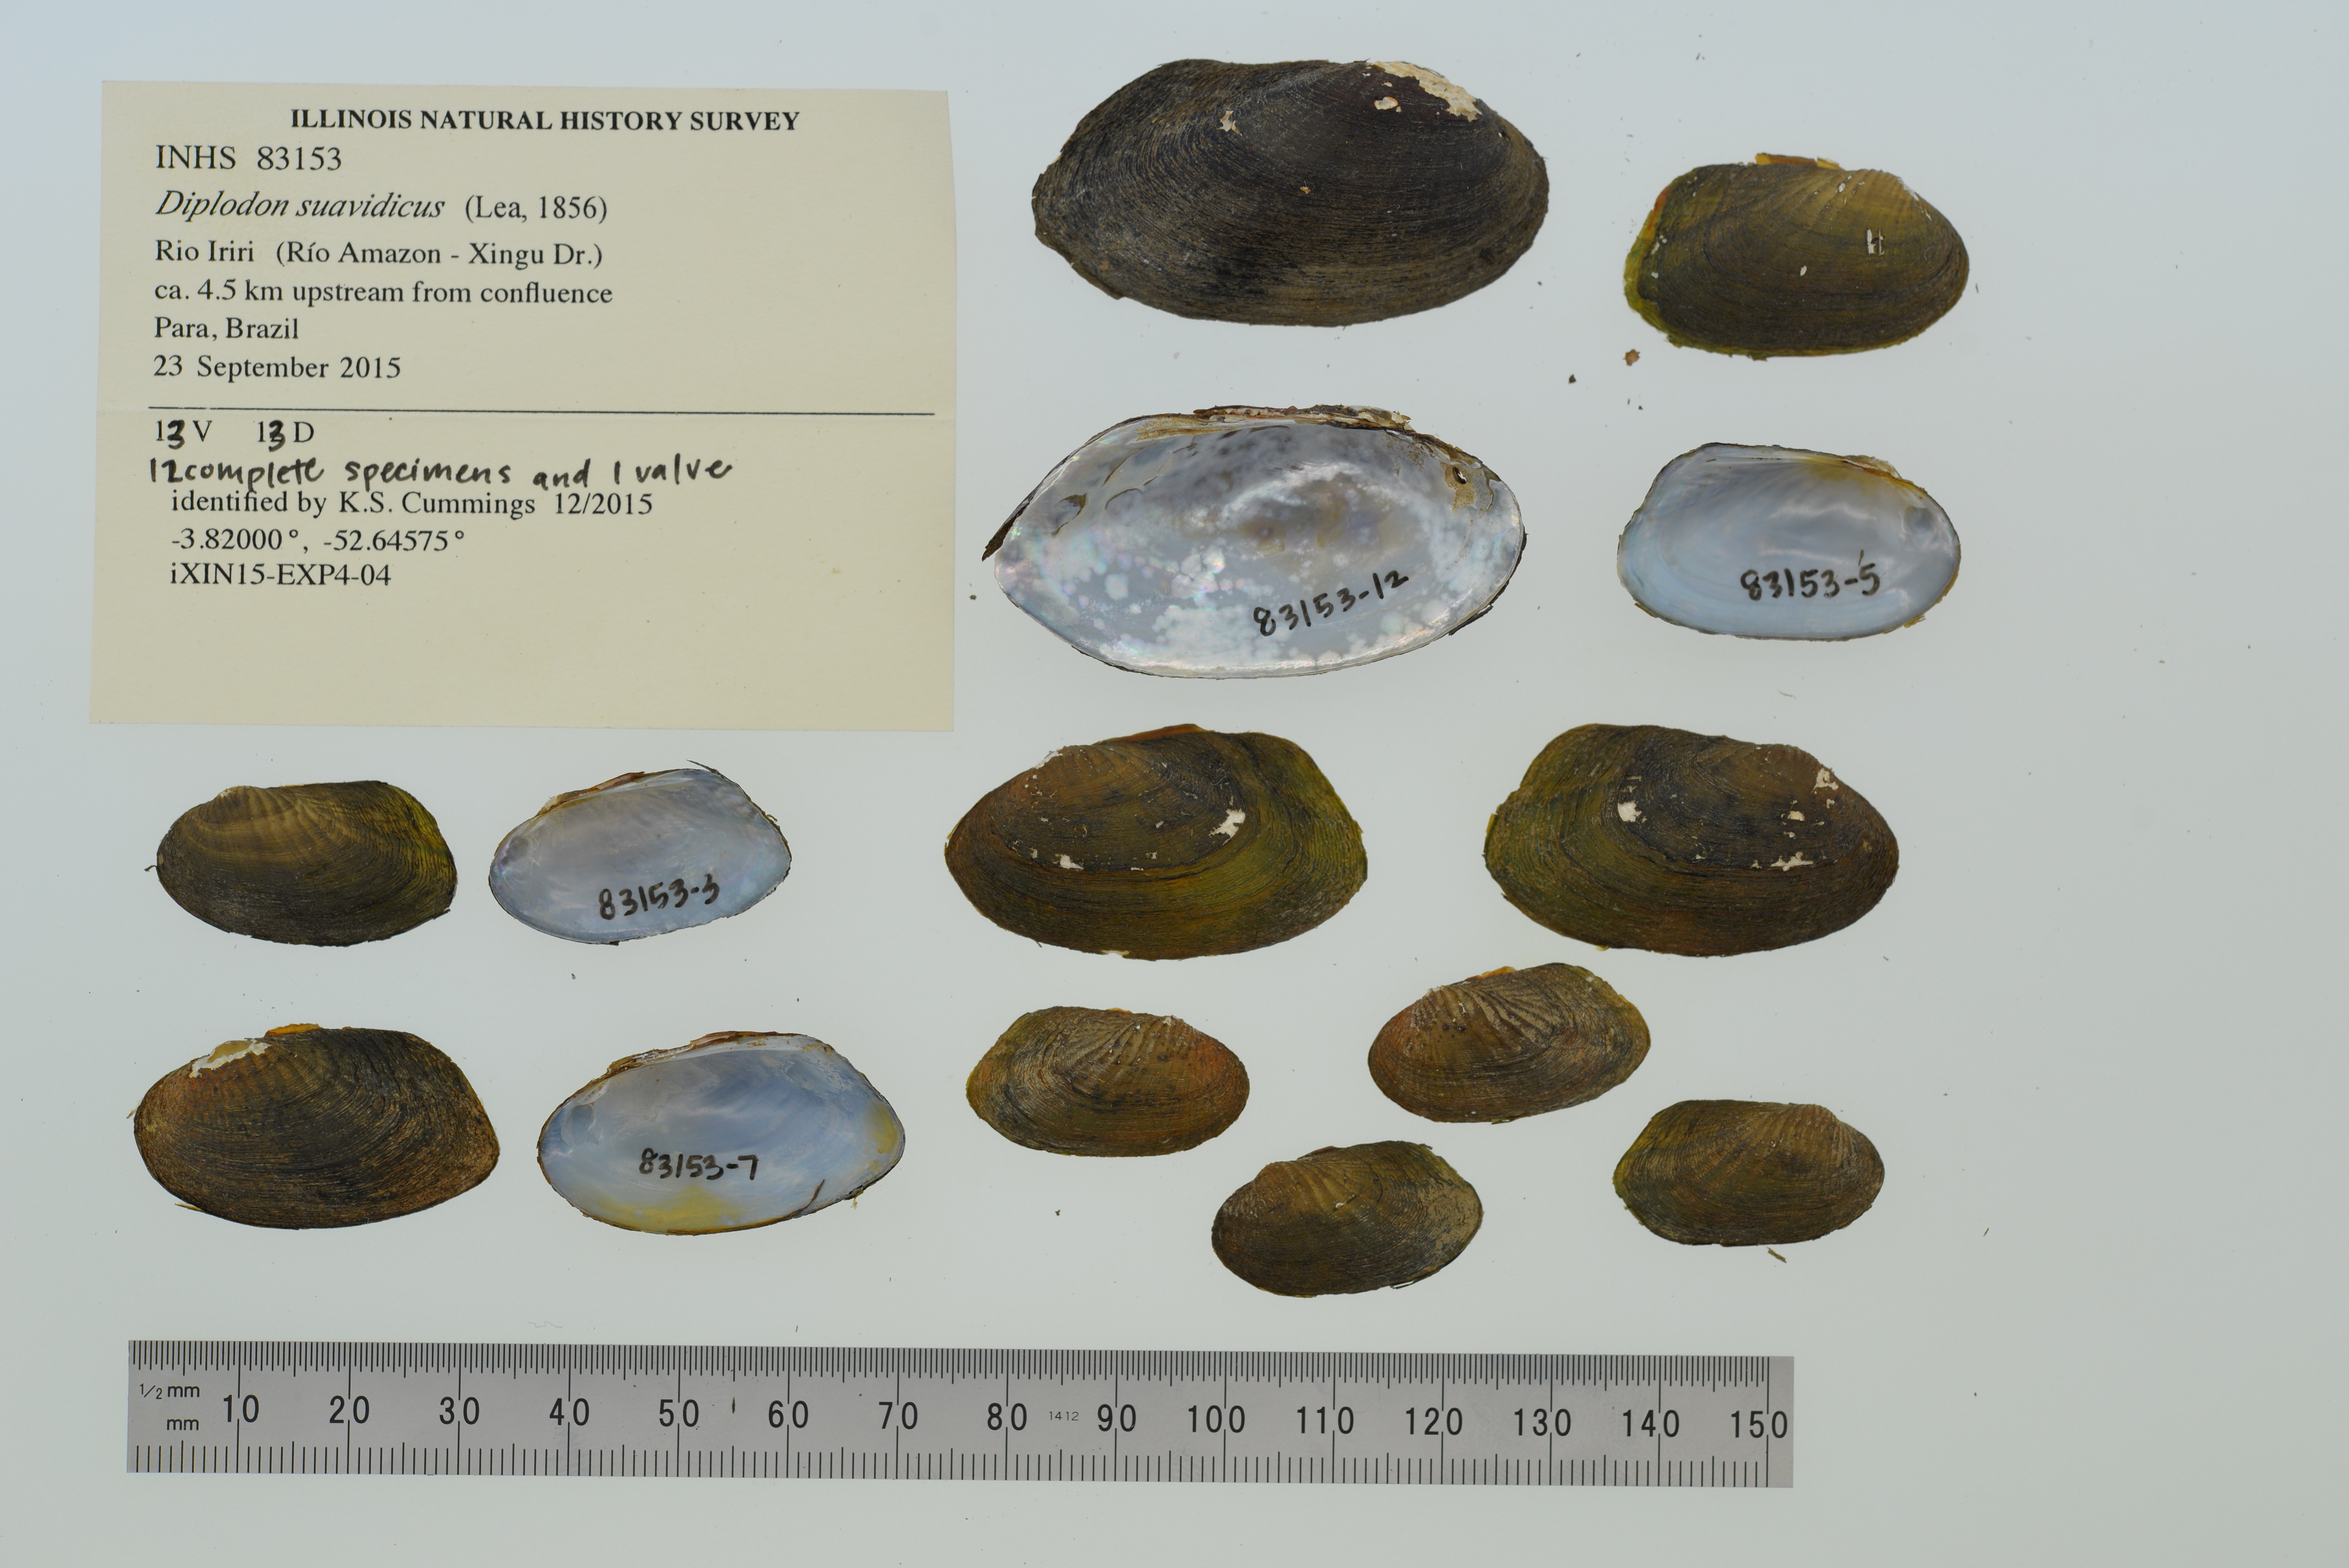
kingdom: Animalia
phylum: Mollusca
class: Bivalvia
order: Unionida
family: Hyriidae
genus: Diplodon
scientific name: Diplodon suavidicus
